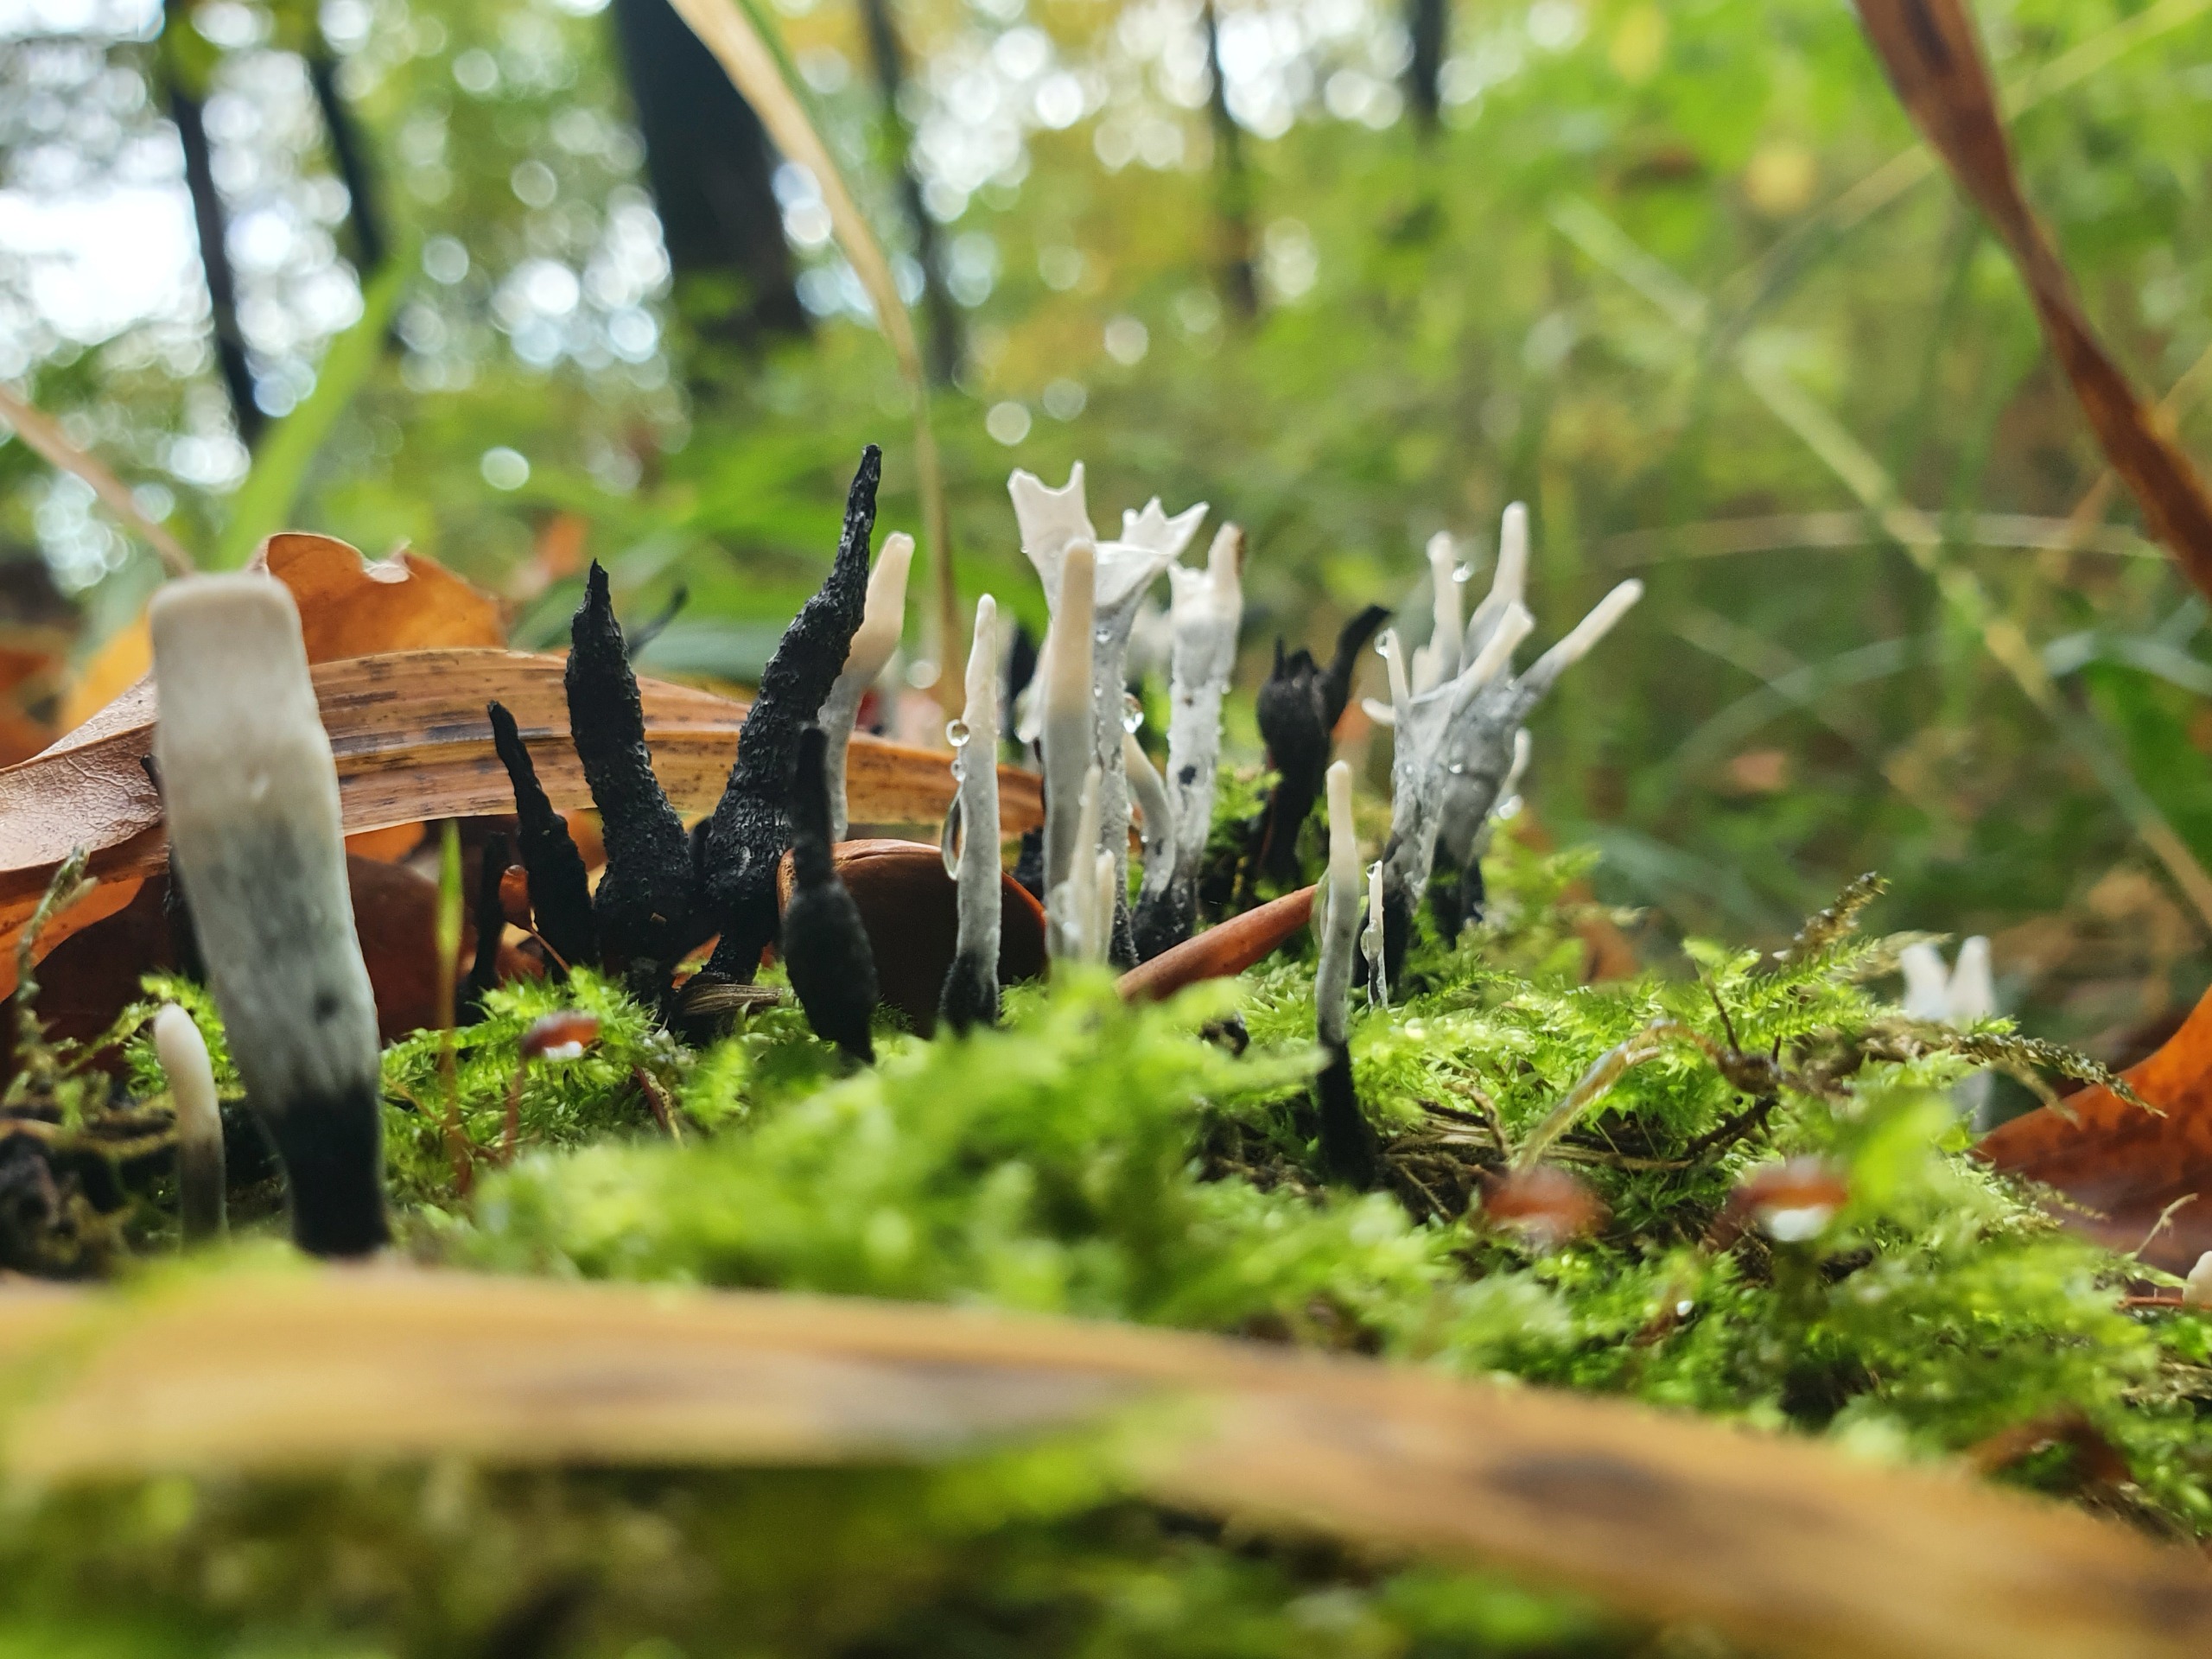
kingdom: Fungi
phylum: Ascomycota
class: Sordariomycetes
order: Xylariales
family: Xylariaceae
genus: Xylaria
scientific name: Xylaria hypoxylon
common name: Grenet stødsvamp
